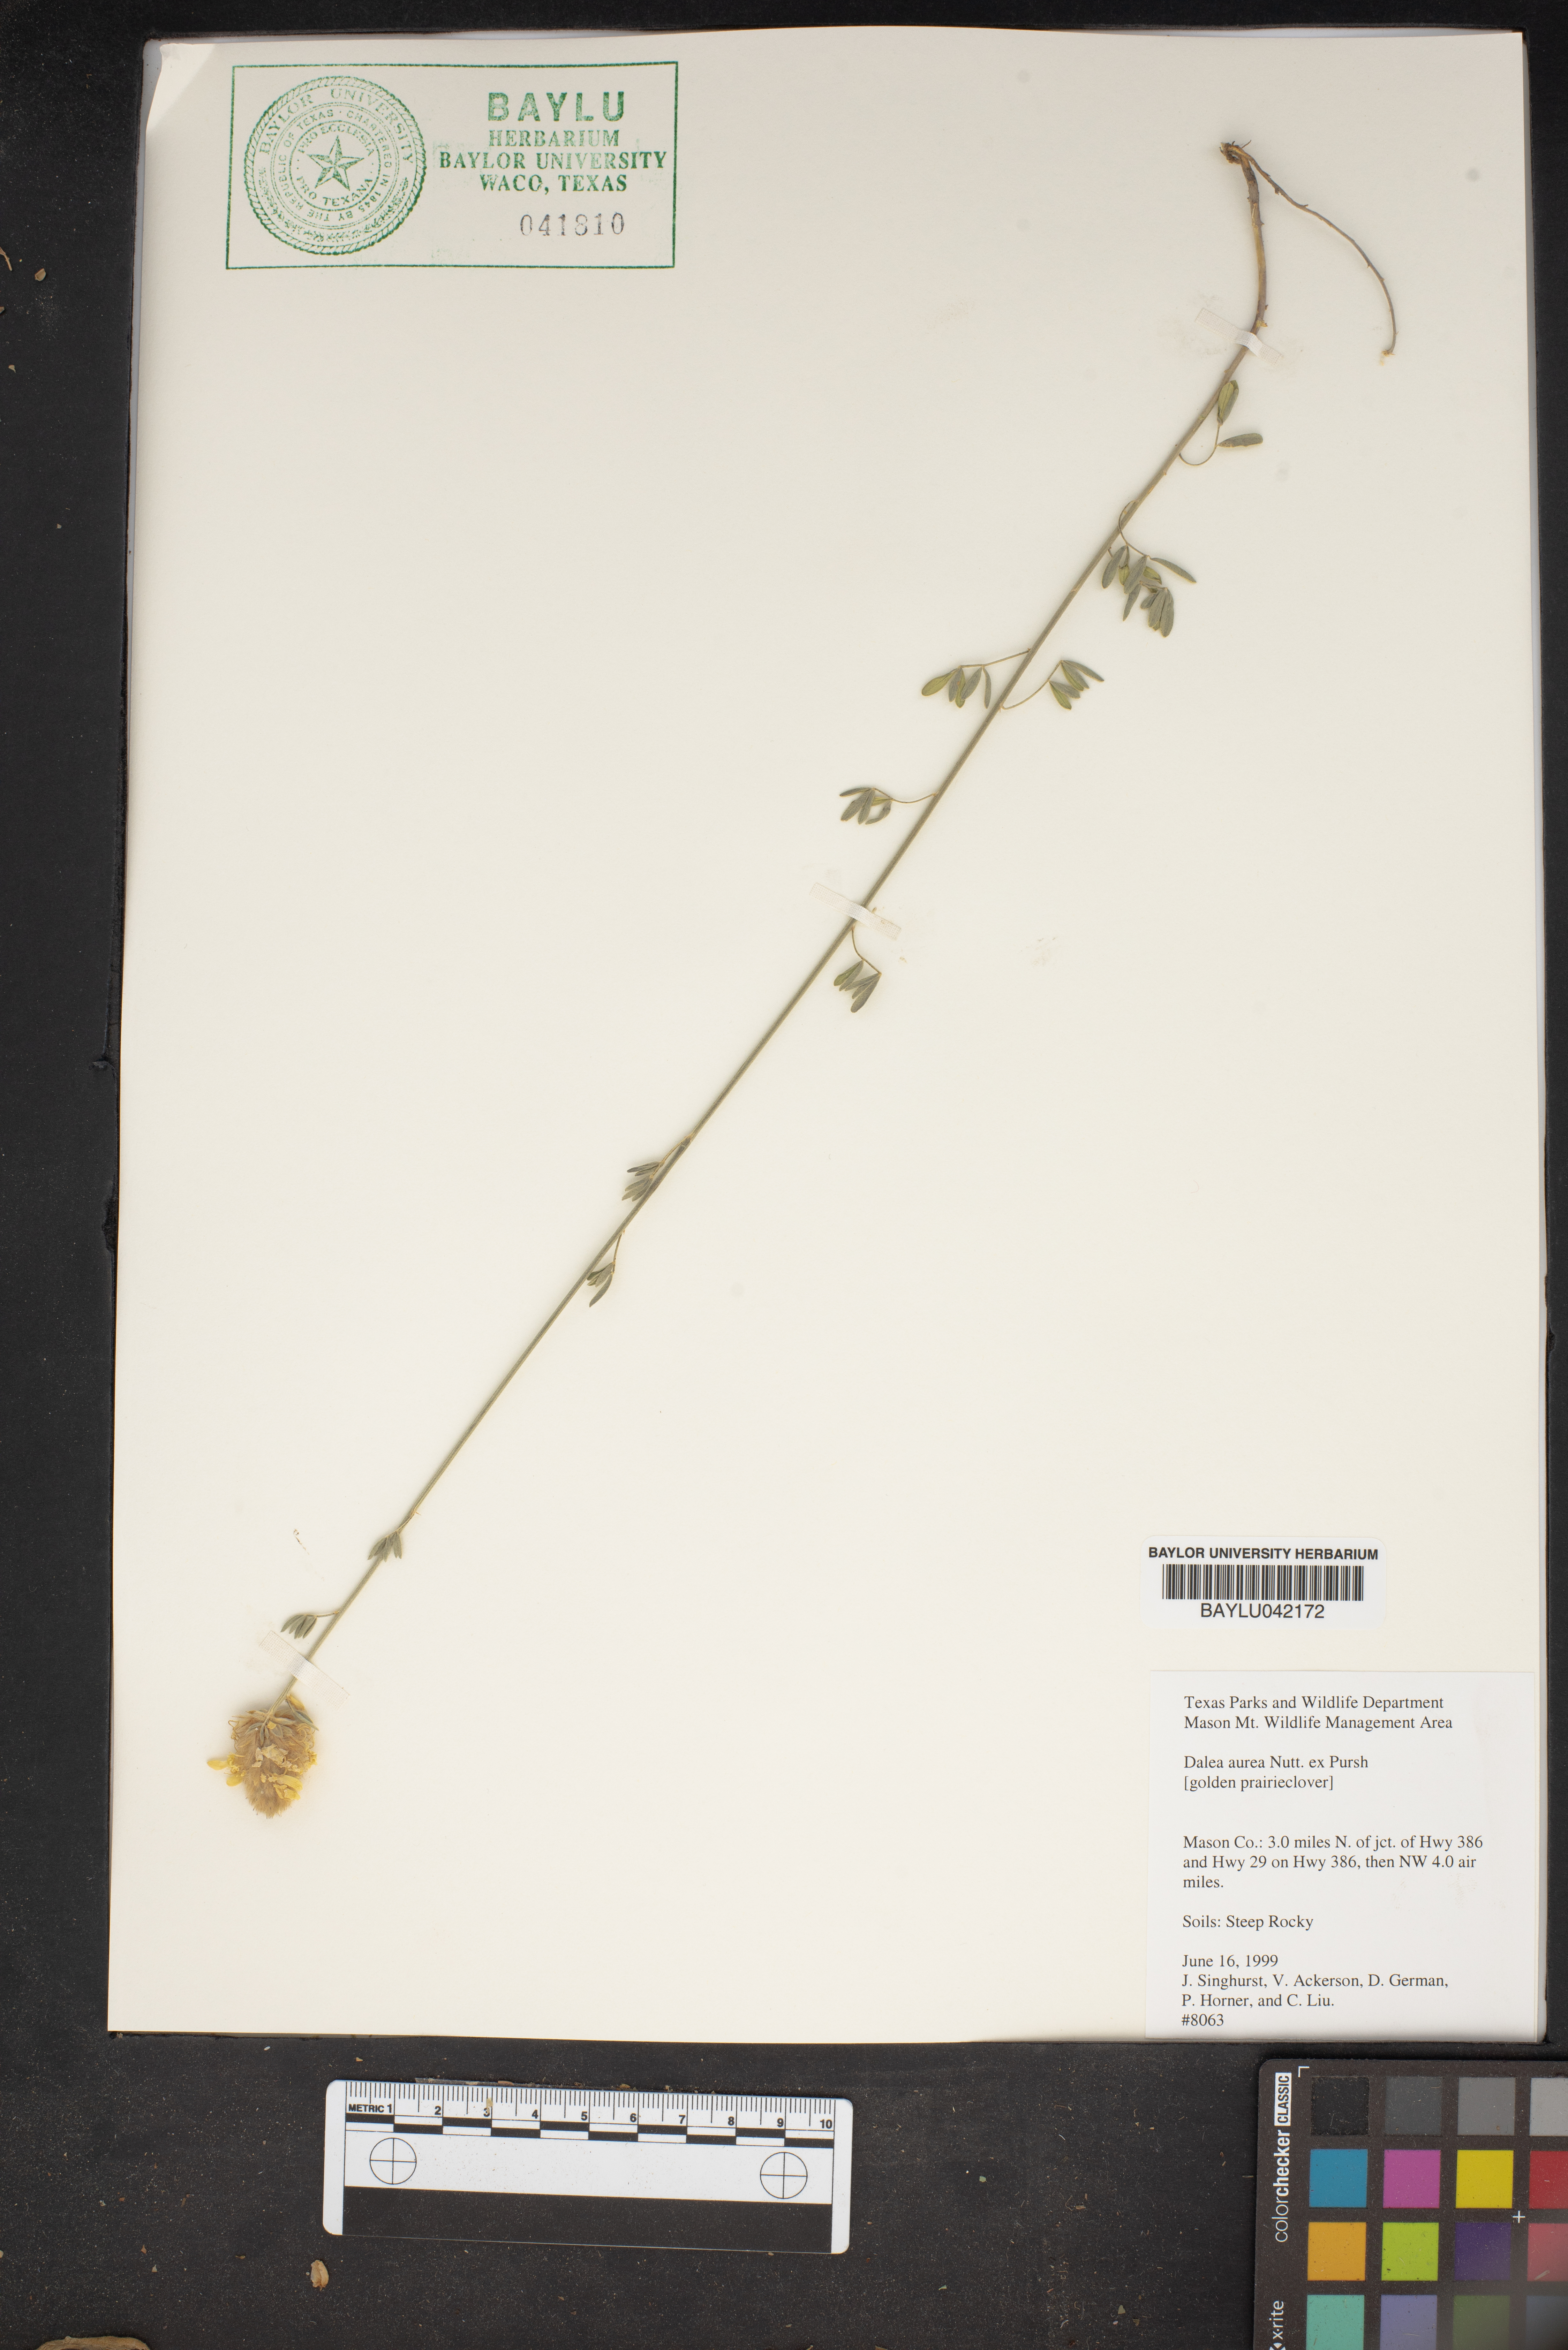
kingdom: Plantae
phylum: Tracheophyta
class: Magnoliopsida
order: Fabales
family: Fabaceae
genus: Dalea
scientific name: Dalea aurea
